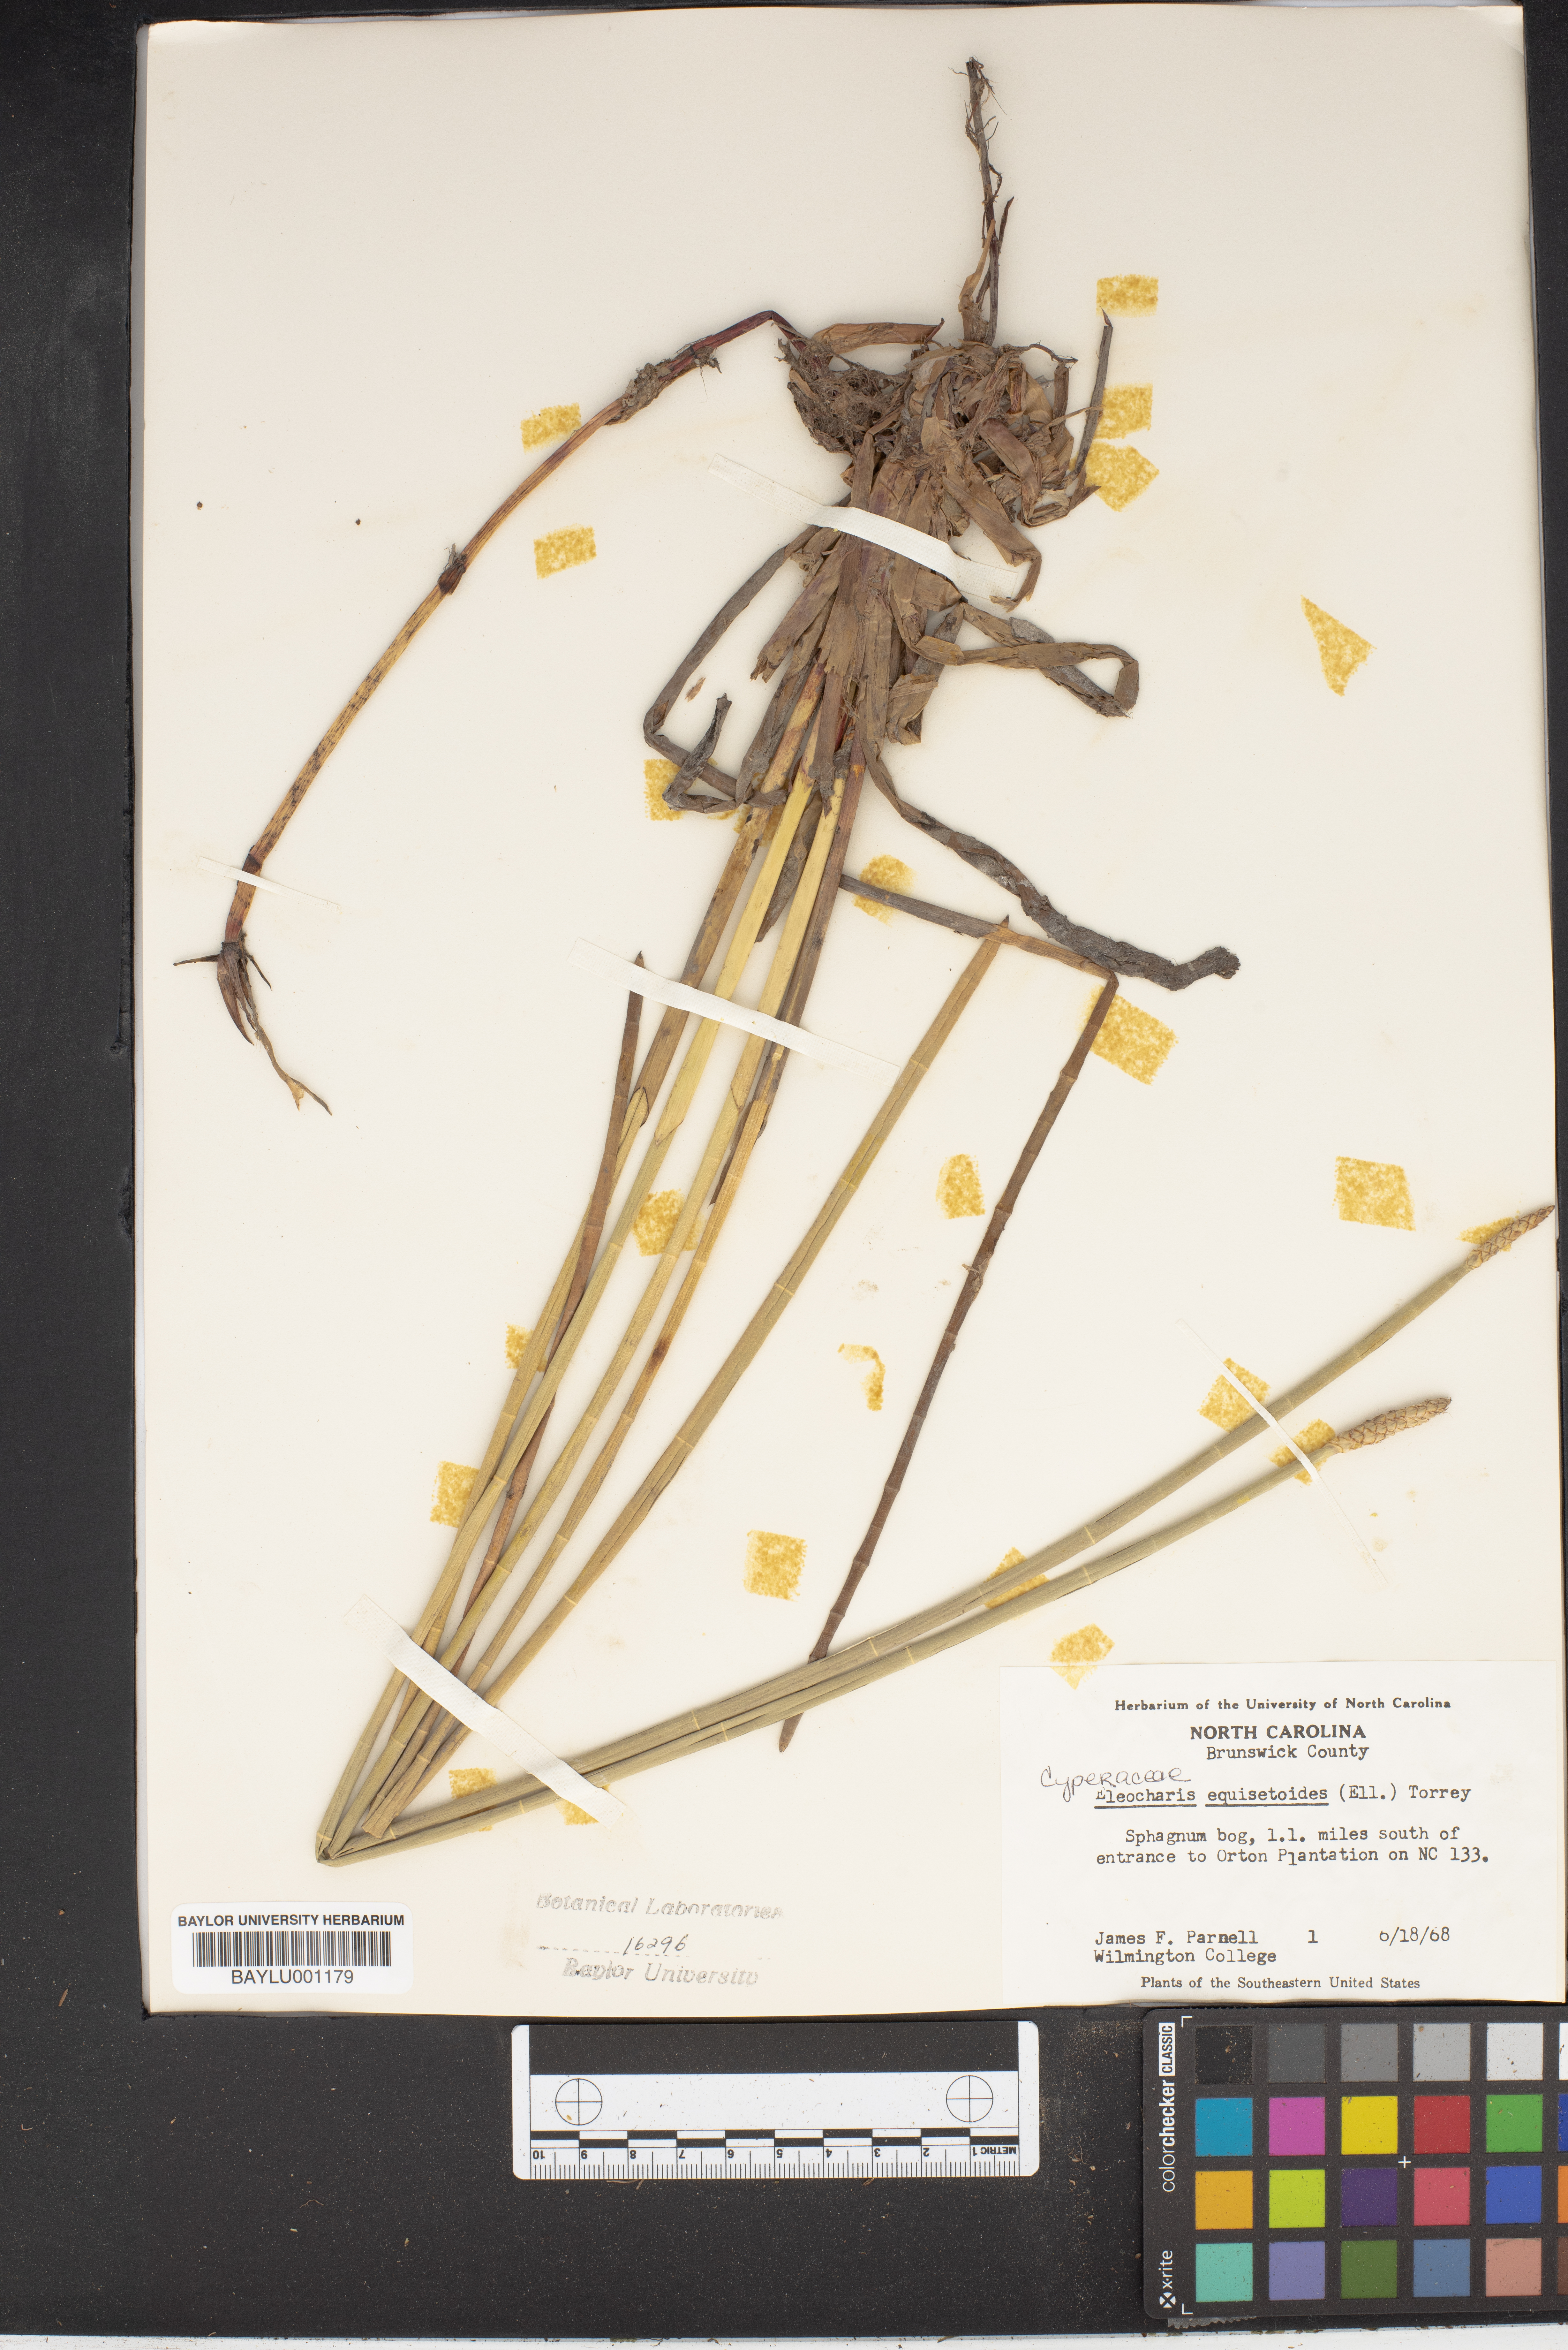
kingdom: Plantae
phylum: Tracheophyta
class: Liliopsida
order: Poales
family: Cyperaceae
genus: Eleocharis
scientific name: Eleocharis equisetoides
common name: Horsetail spike-rush
